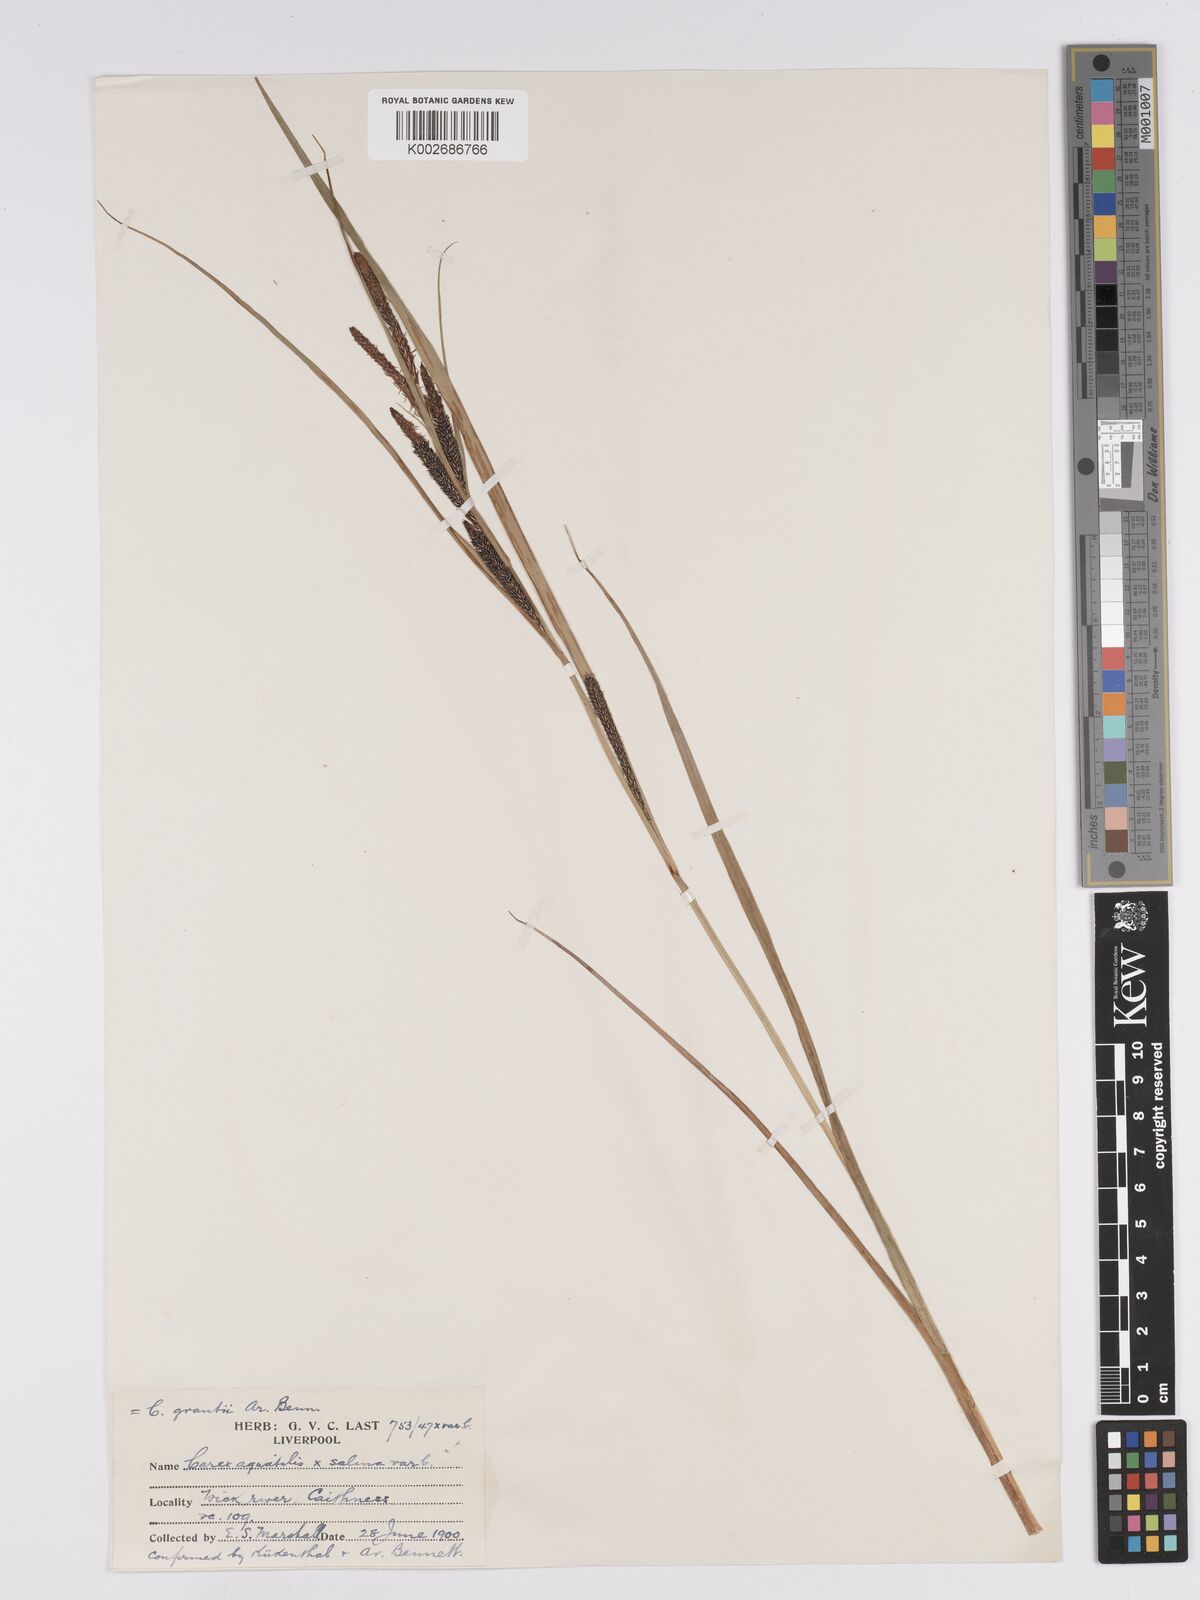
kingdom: Plantae
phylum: Tracheophyta
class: Liliopsida
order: Poales
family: Cyperaceae
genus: Carex
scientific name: Carex grantii
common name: Grant's sedge
